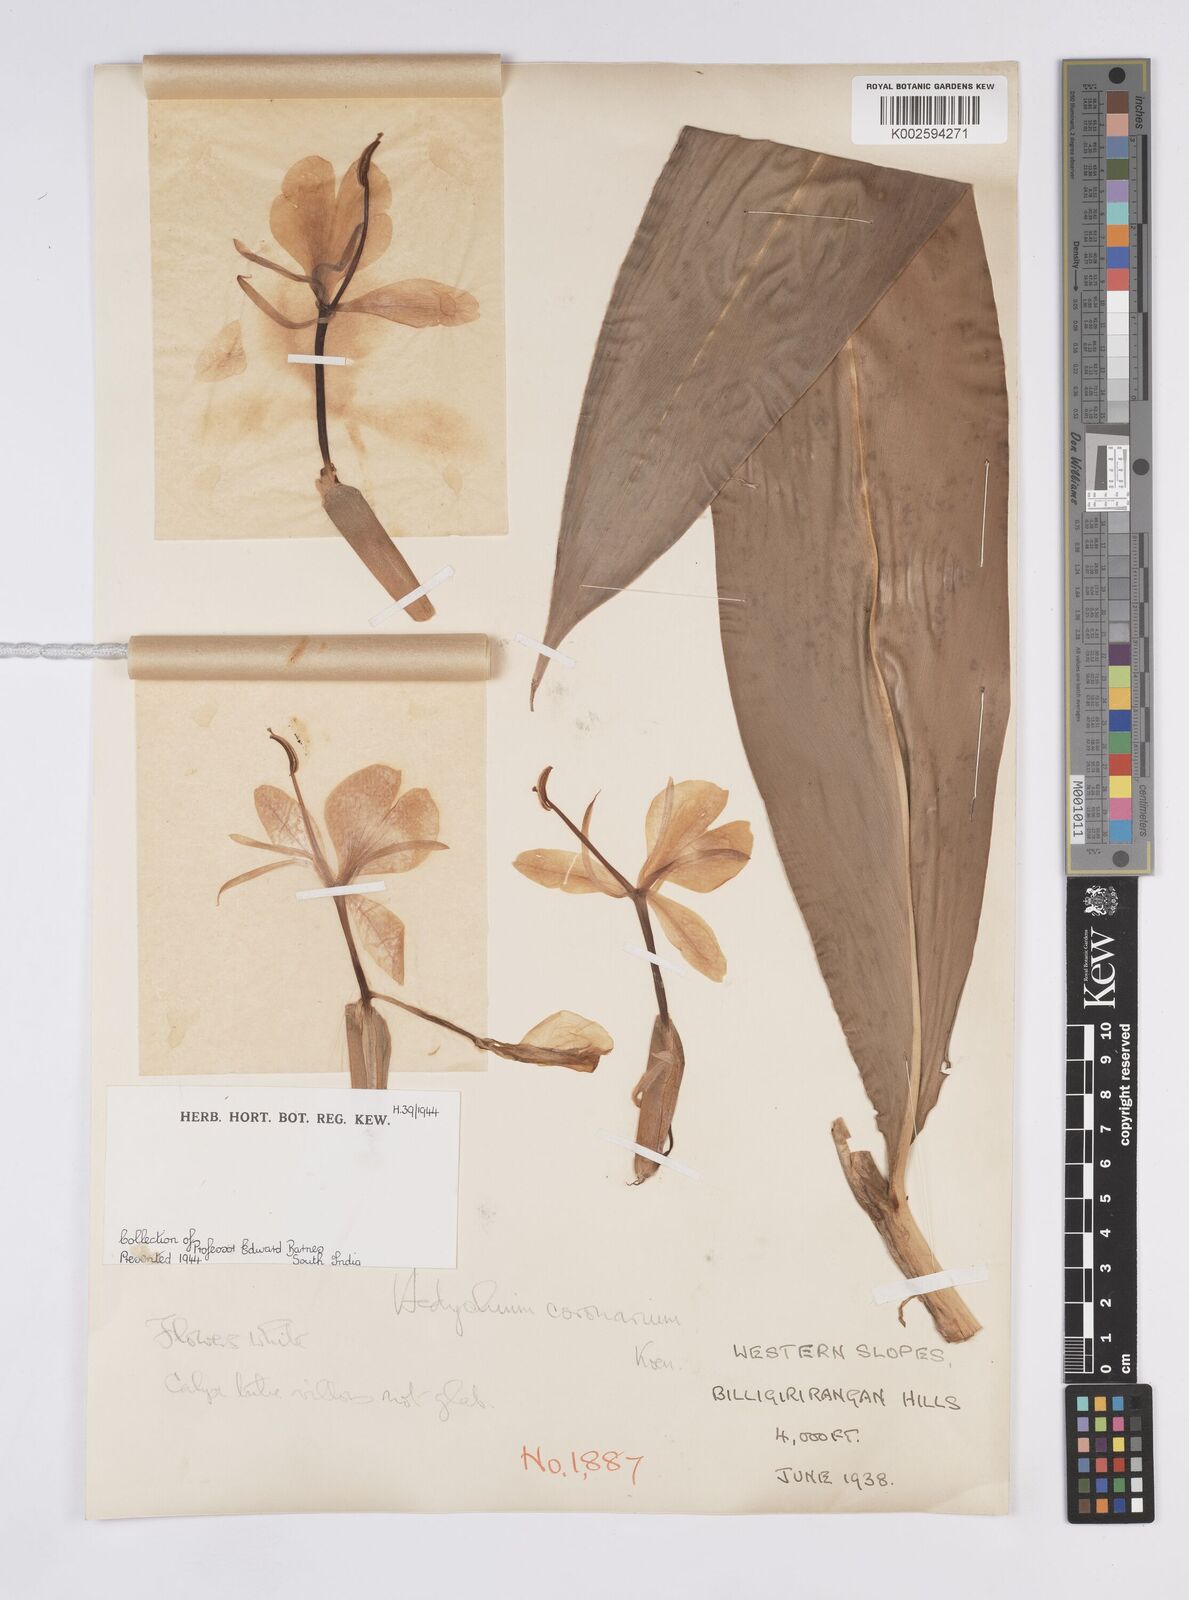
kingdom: Plantae
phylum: Tracheophyta
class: Liliopsida
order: Zingiberales
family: Zingiberaceae
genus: Hedychium
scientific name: Hedychium coronarium
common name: White garland-lily
